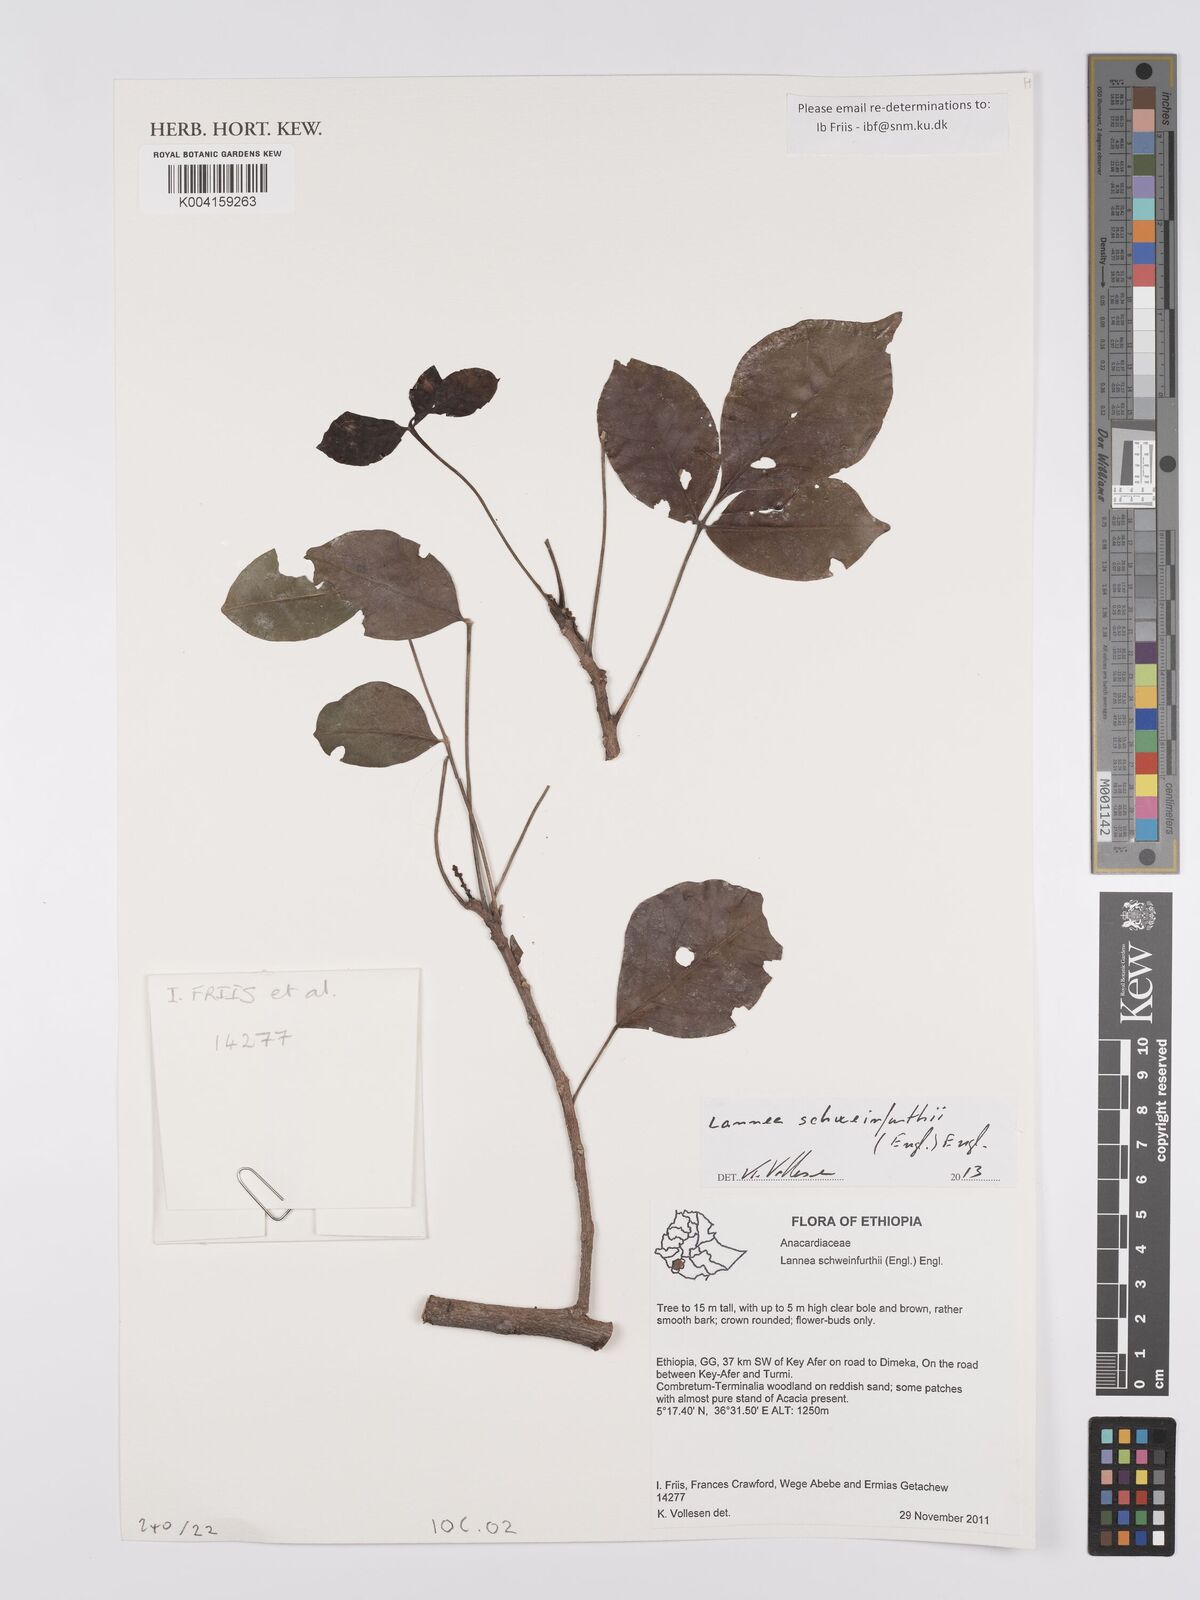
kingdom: Plantae
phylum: Tracheophyta
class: Magnoliopsida
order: Sapindales
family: Anacardiaceae
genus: Lannea
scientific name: Lannea schweinfurthii
